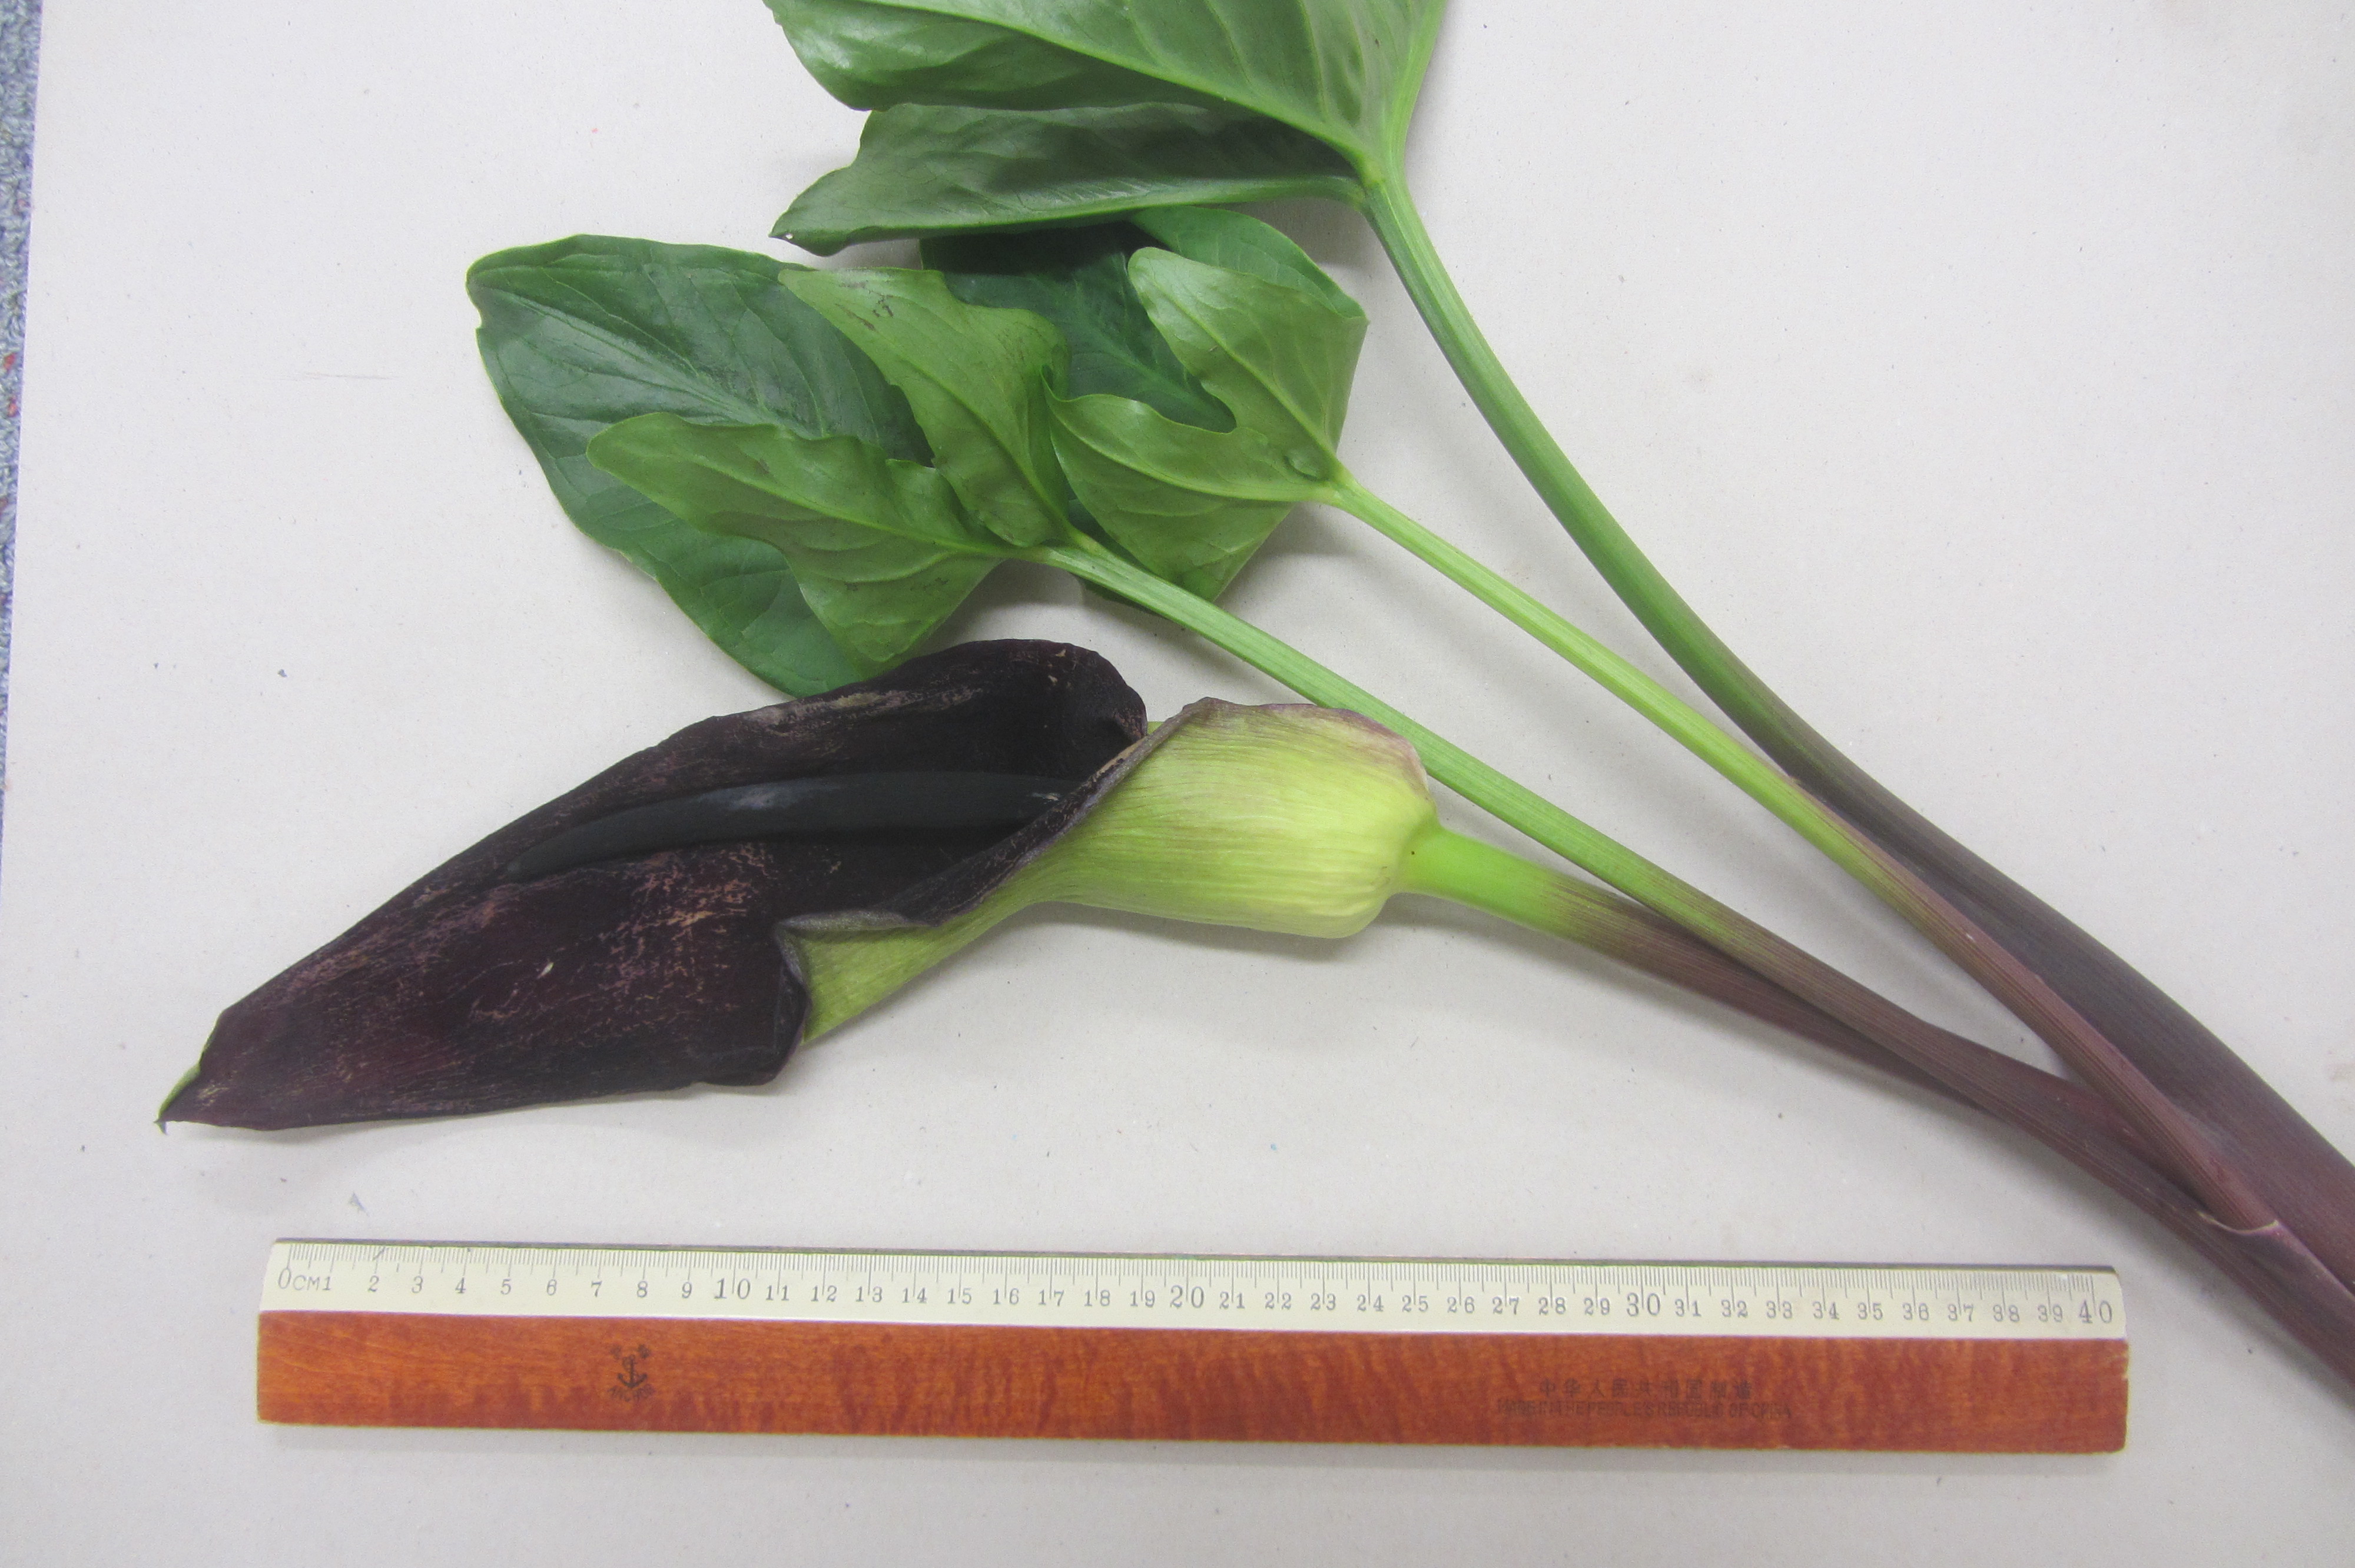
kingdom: Plantae
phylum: Tracheophyta
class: Liliopsida
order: Alismatales
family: Araceae
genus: Arum
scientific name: Arum palaestinum
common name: Solomon's lily
